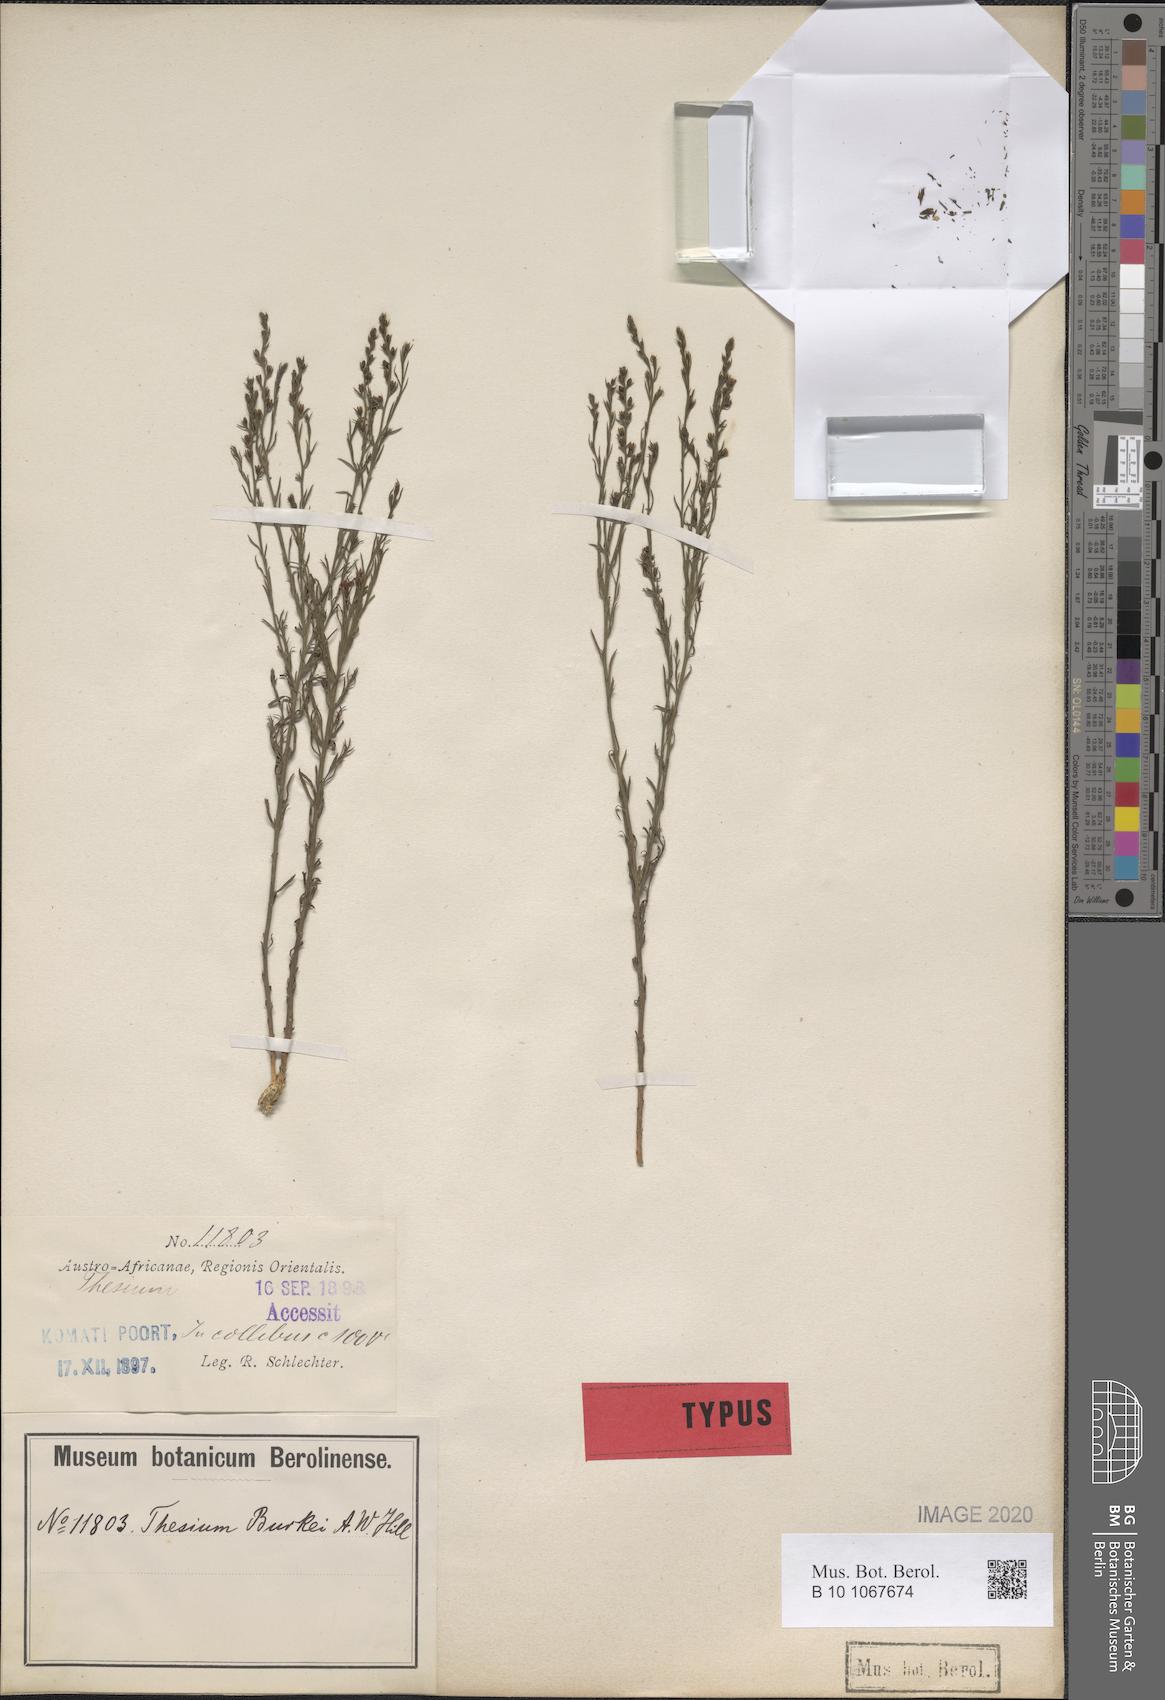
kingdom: Plantae
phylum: Tracheophyta
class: Magnoliopsida
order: Santalales
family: Thesiaceae
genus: Thesium
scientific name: Thesium resedoides
